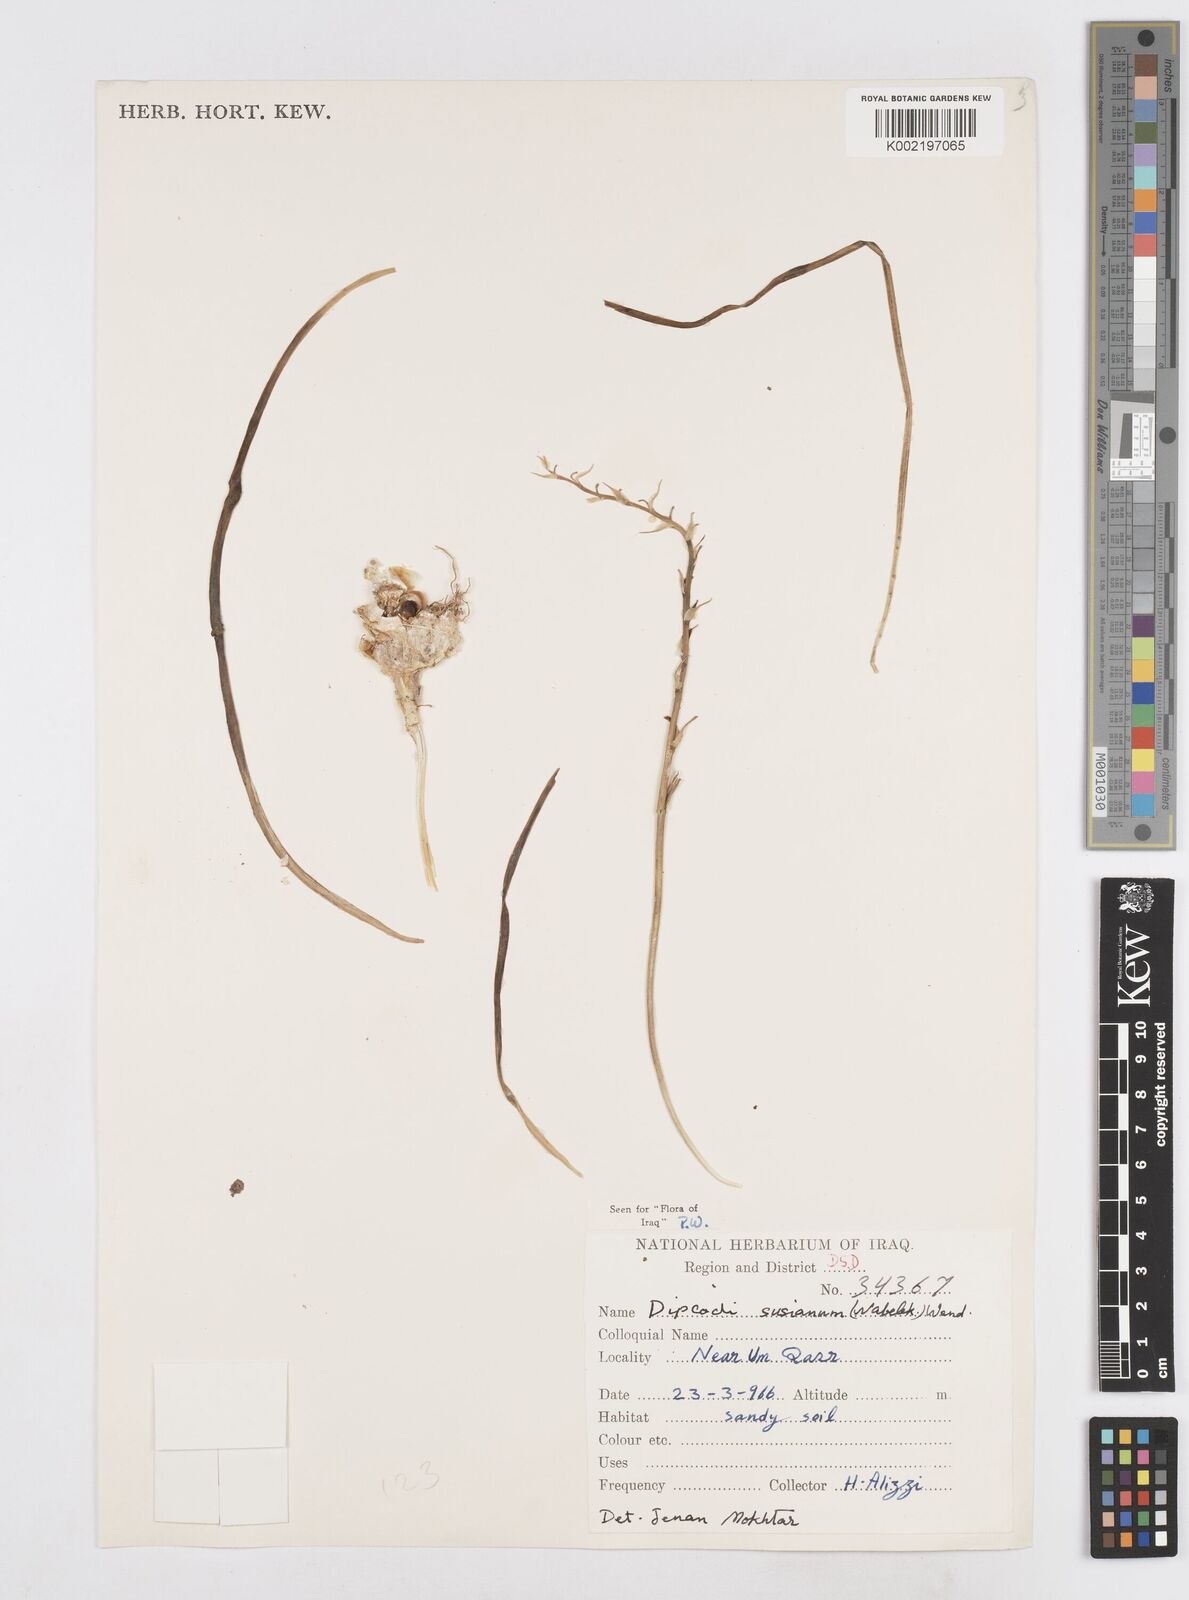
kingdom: Plantae
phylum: Tracheophyta
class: Liliopsida
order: Asparagales
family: Asparagaceae
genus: Dipcadi
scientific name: Dipcadi susianum
